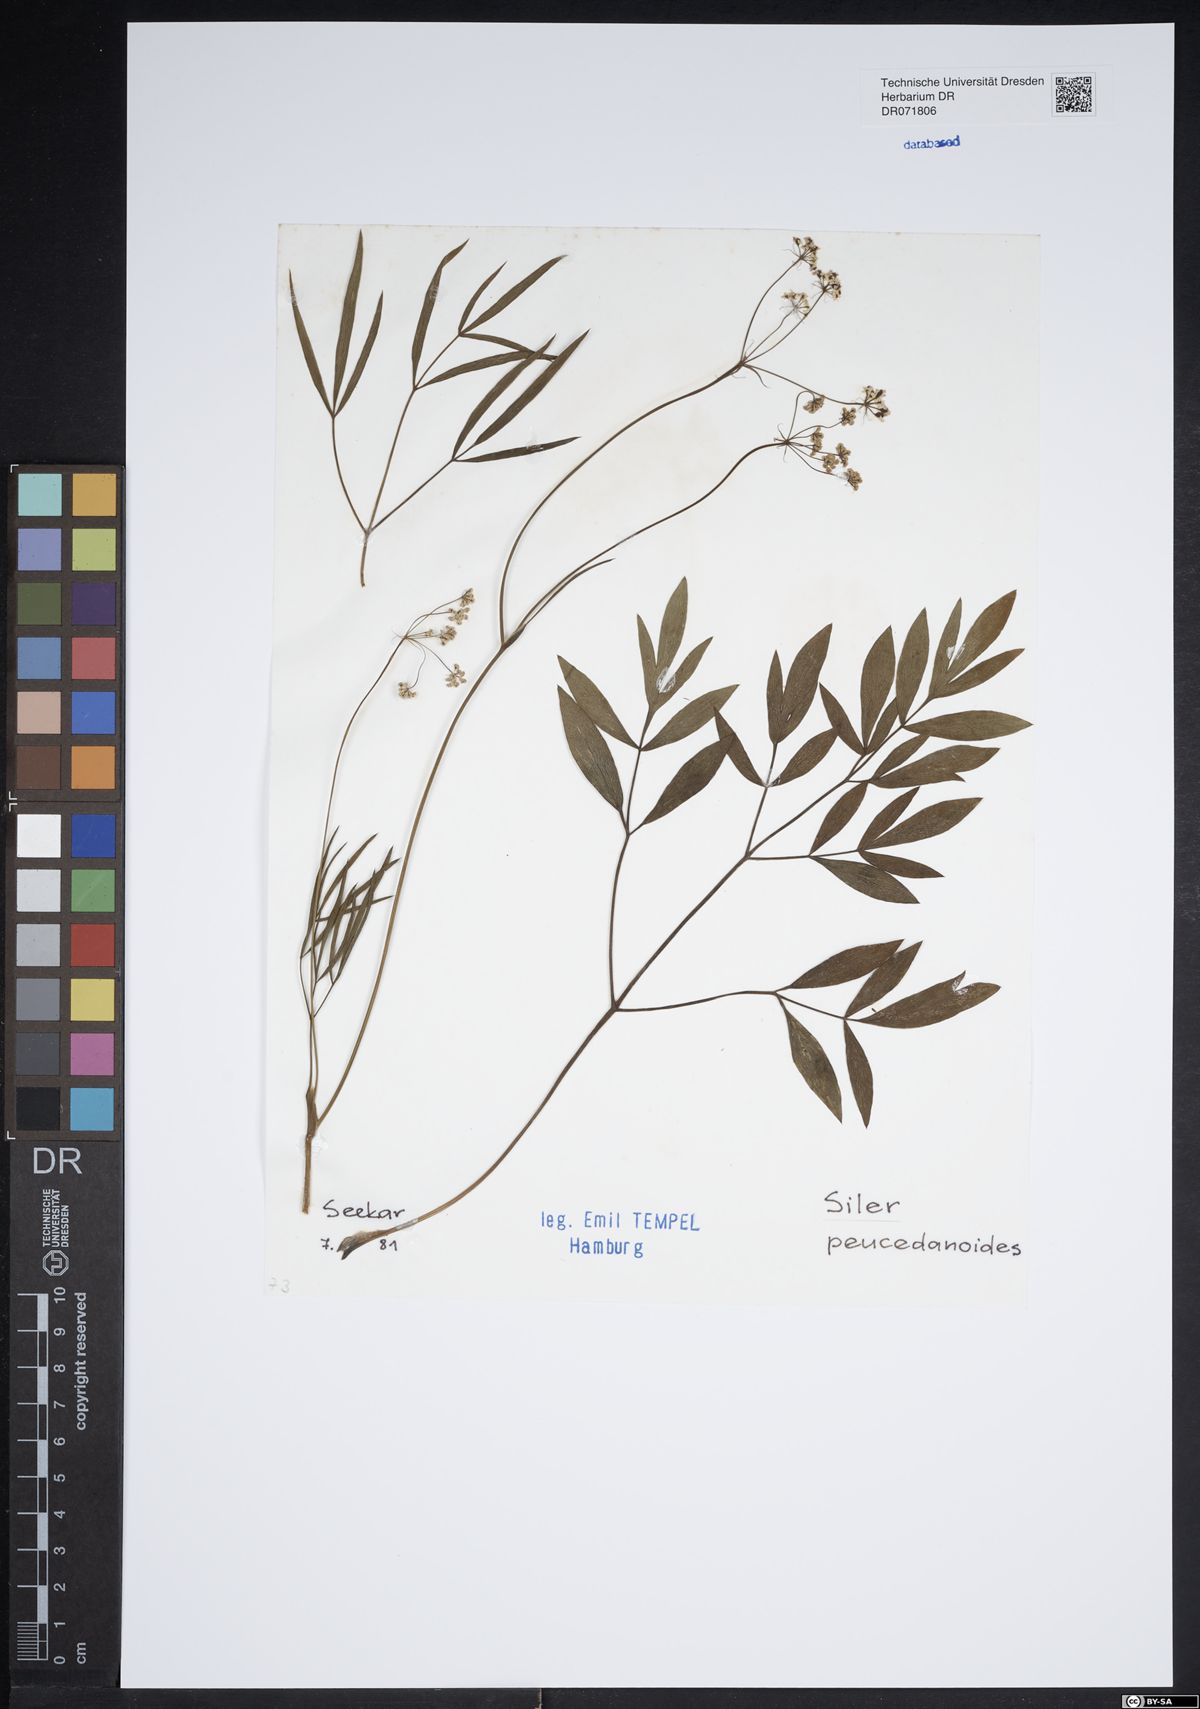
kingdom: Plantae
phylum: Tracheophyta
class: Magnoliopsida
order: Apiales
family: Apiaceae
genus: Siler
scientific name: Siler
